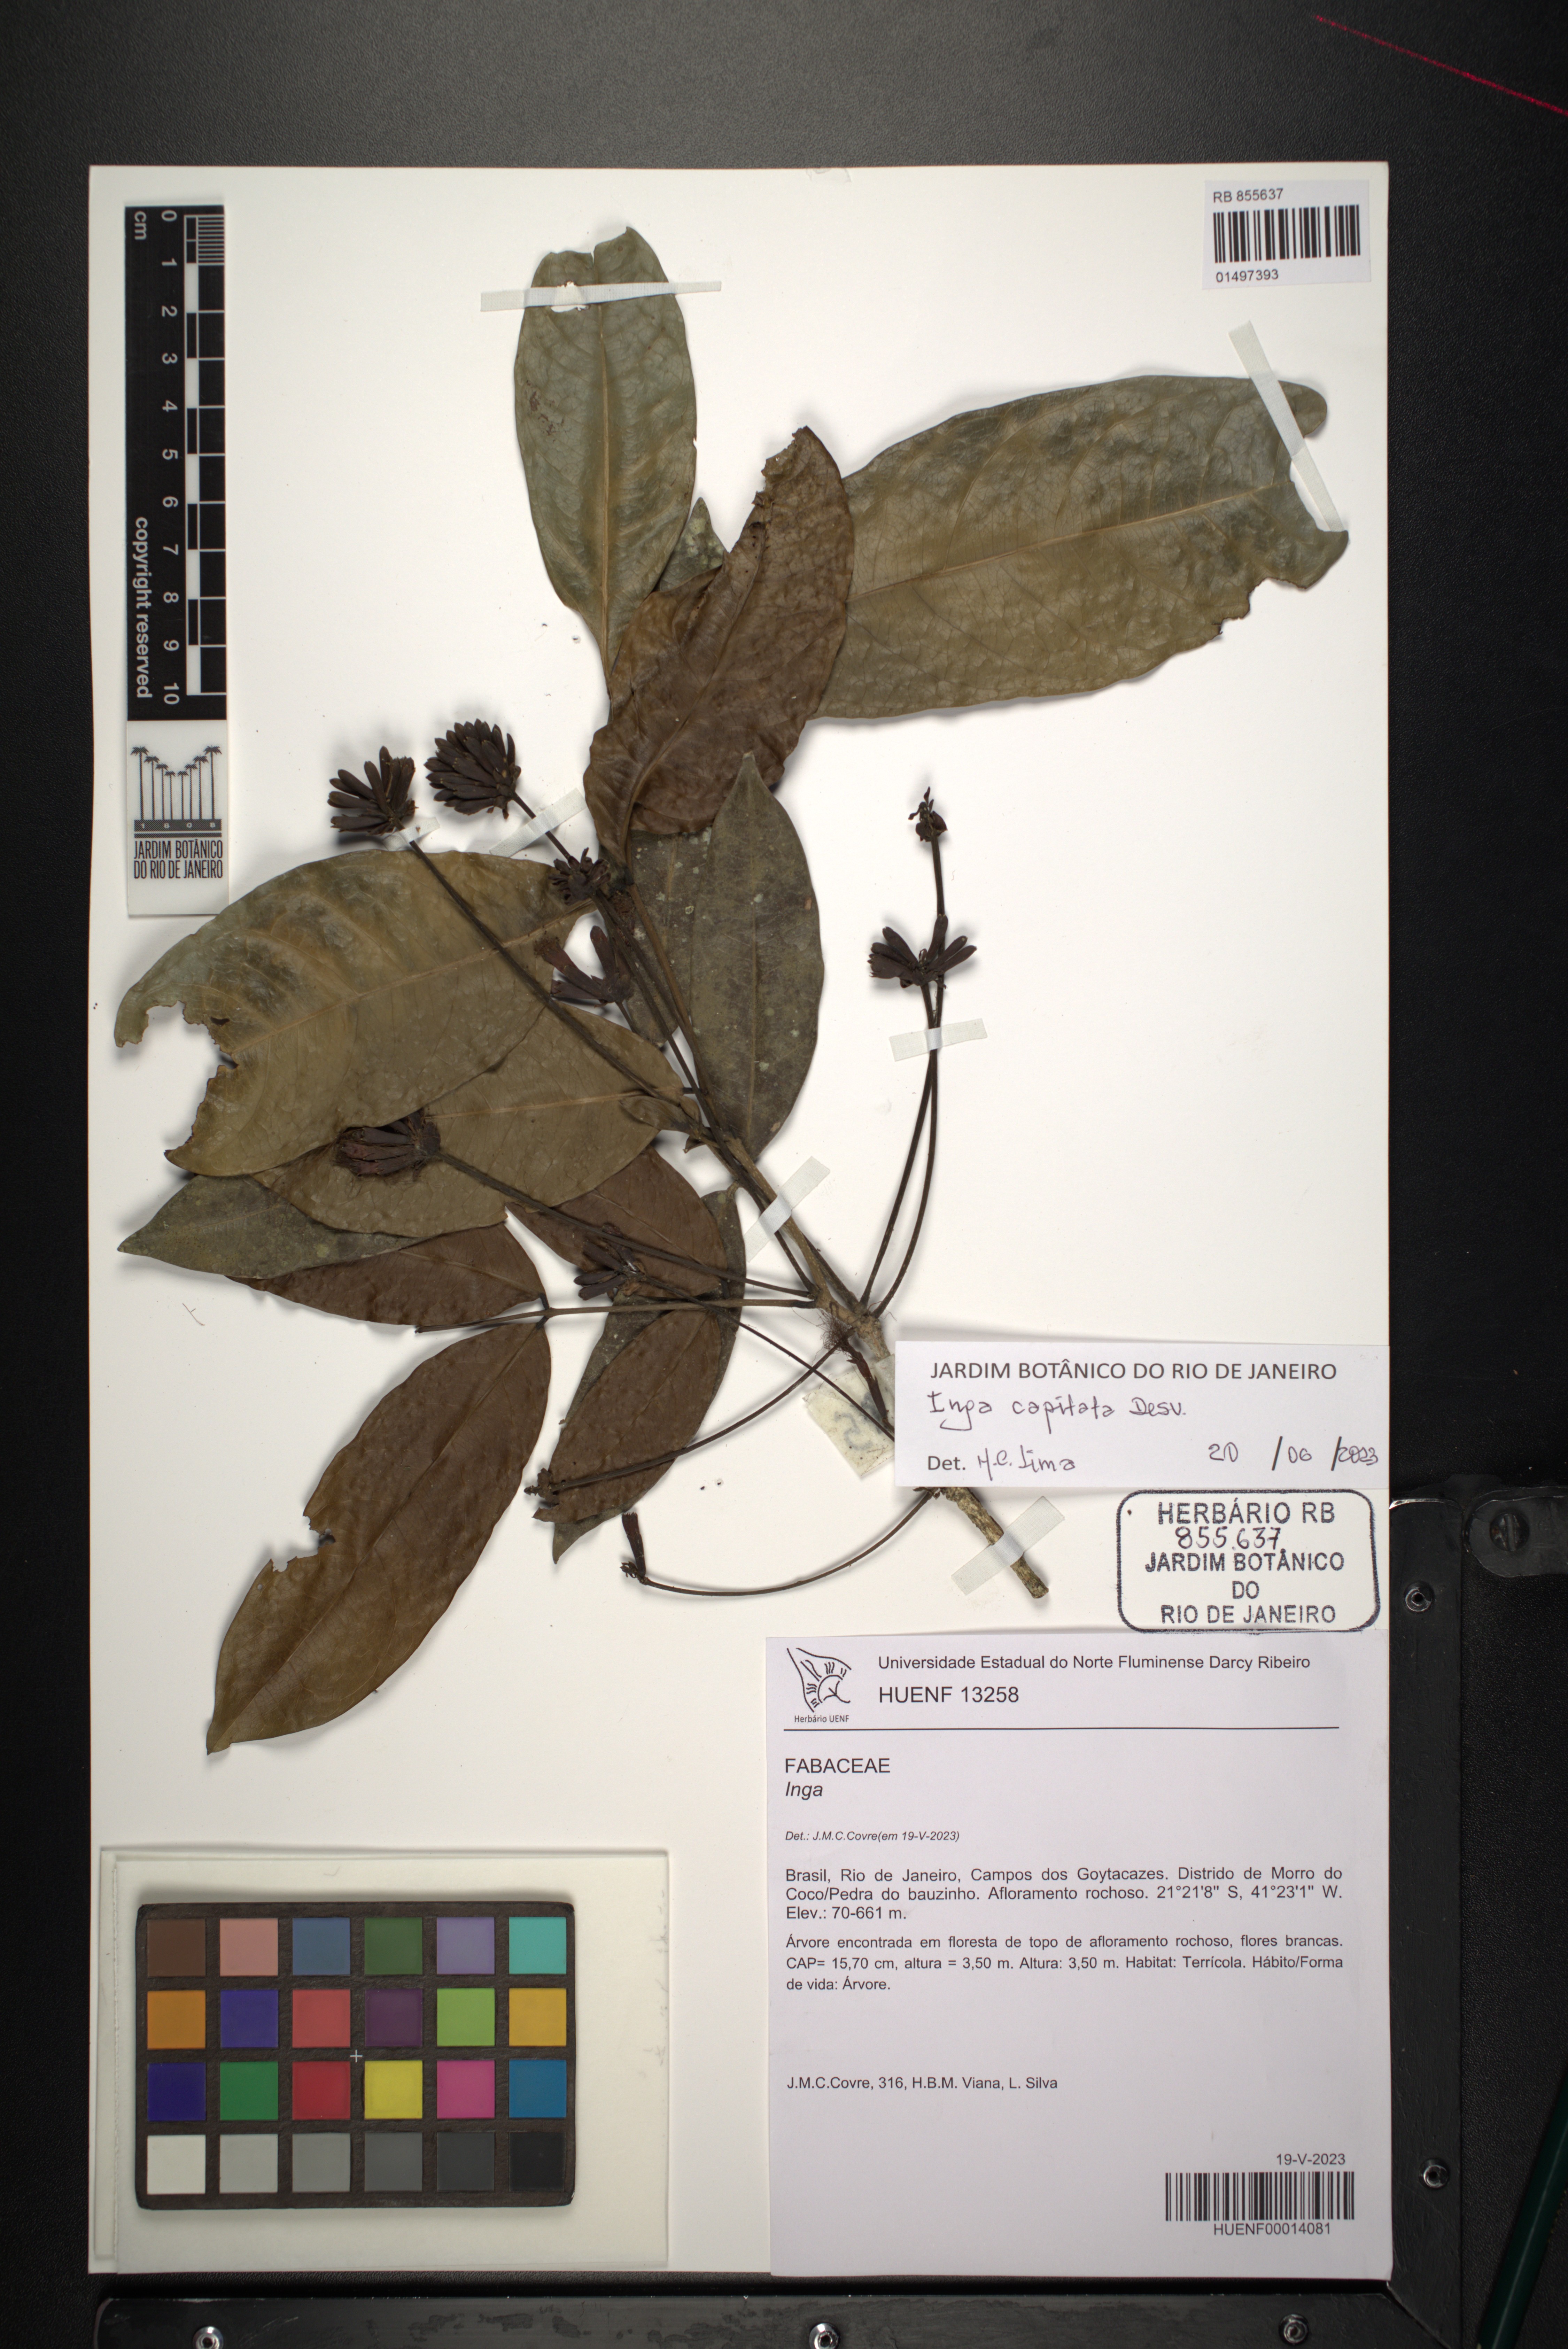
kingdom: Plantae
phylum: Tracheophyta
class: Magnoliopsida
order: Fabales
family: Fabaceae
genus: Inga
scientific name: Inga capitata
